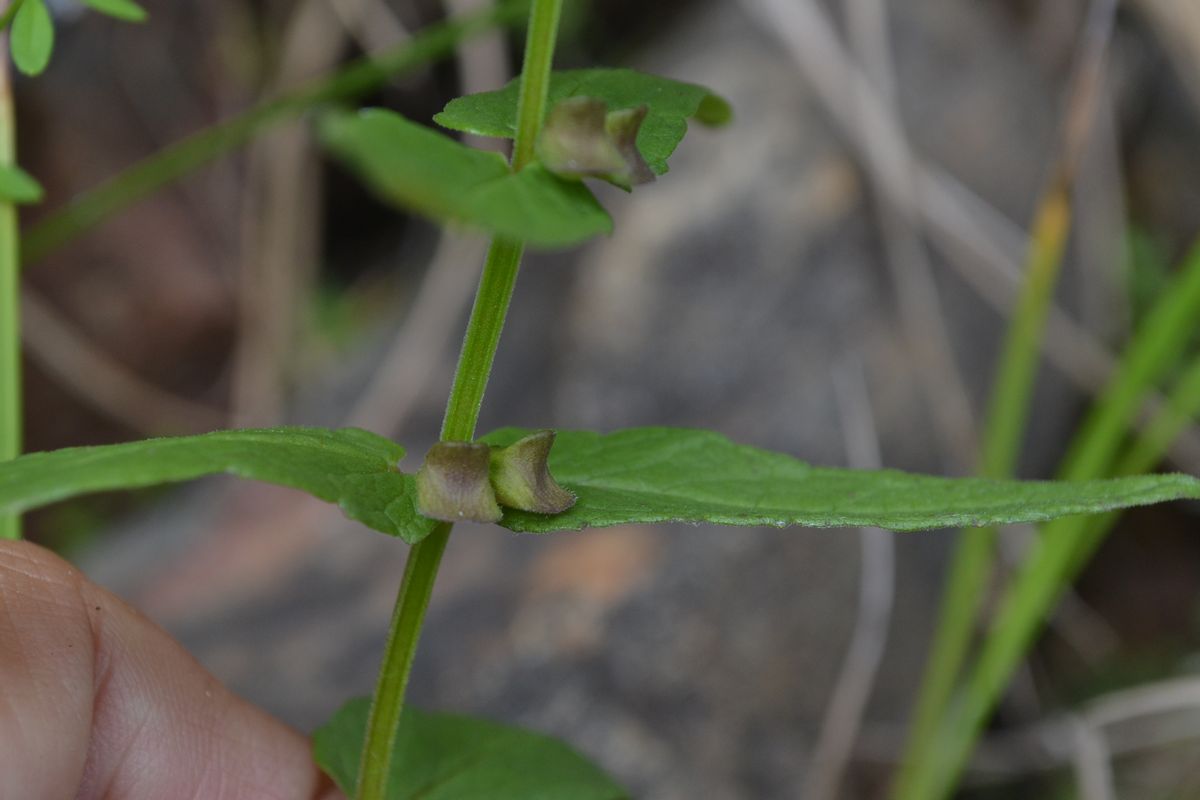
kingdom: Plantae
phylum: Tracheophyta
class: Magnoliopsida
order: Lamiales
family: Lamiaceae
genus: Scutellaria
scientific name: Scutellaria galericulata
